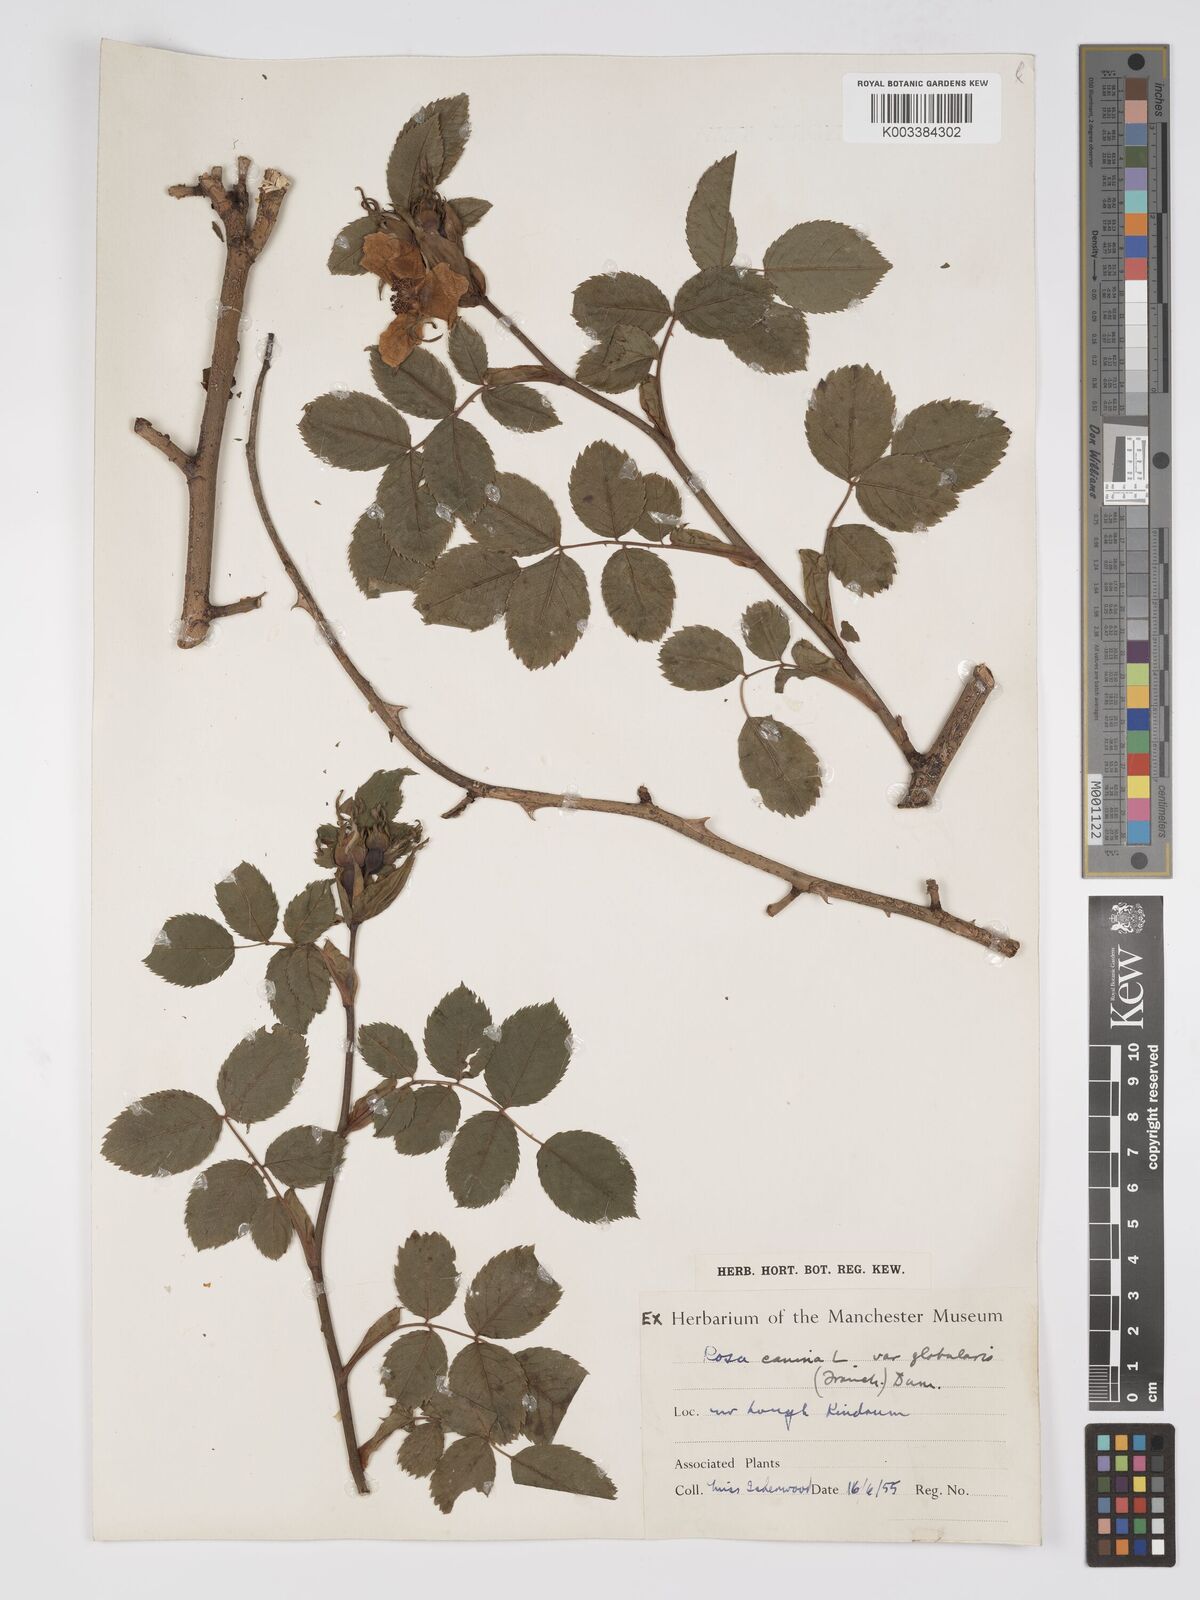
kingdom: Plantae
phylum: Tracheophyta
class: Magnoliopsida
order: Rosales
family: Rosaceae
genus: Rosa
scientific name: Rosa canina
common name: Dog rose
